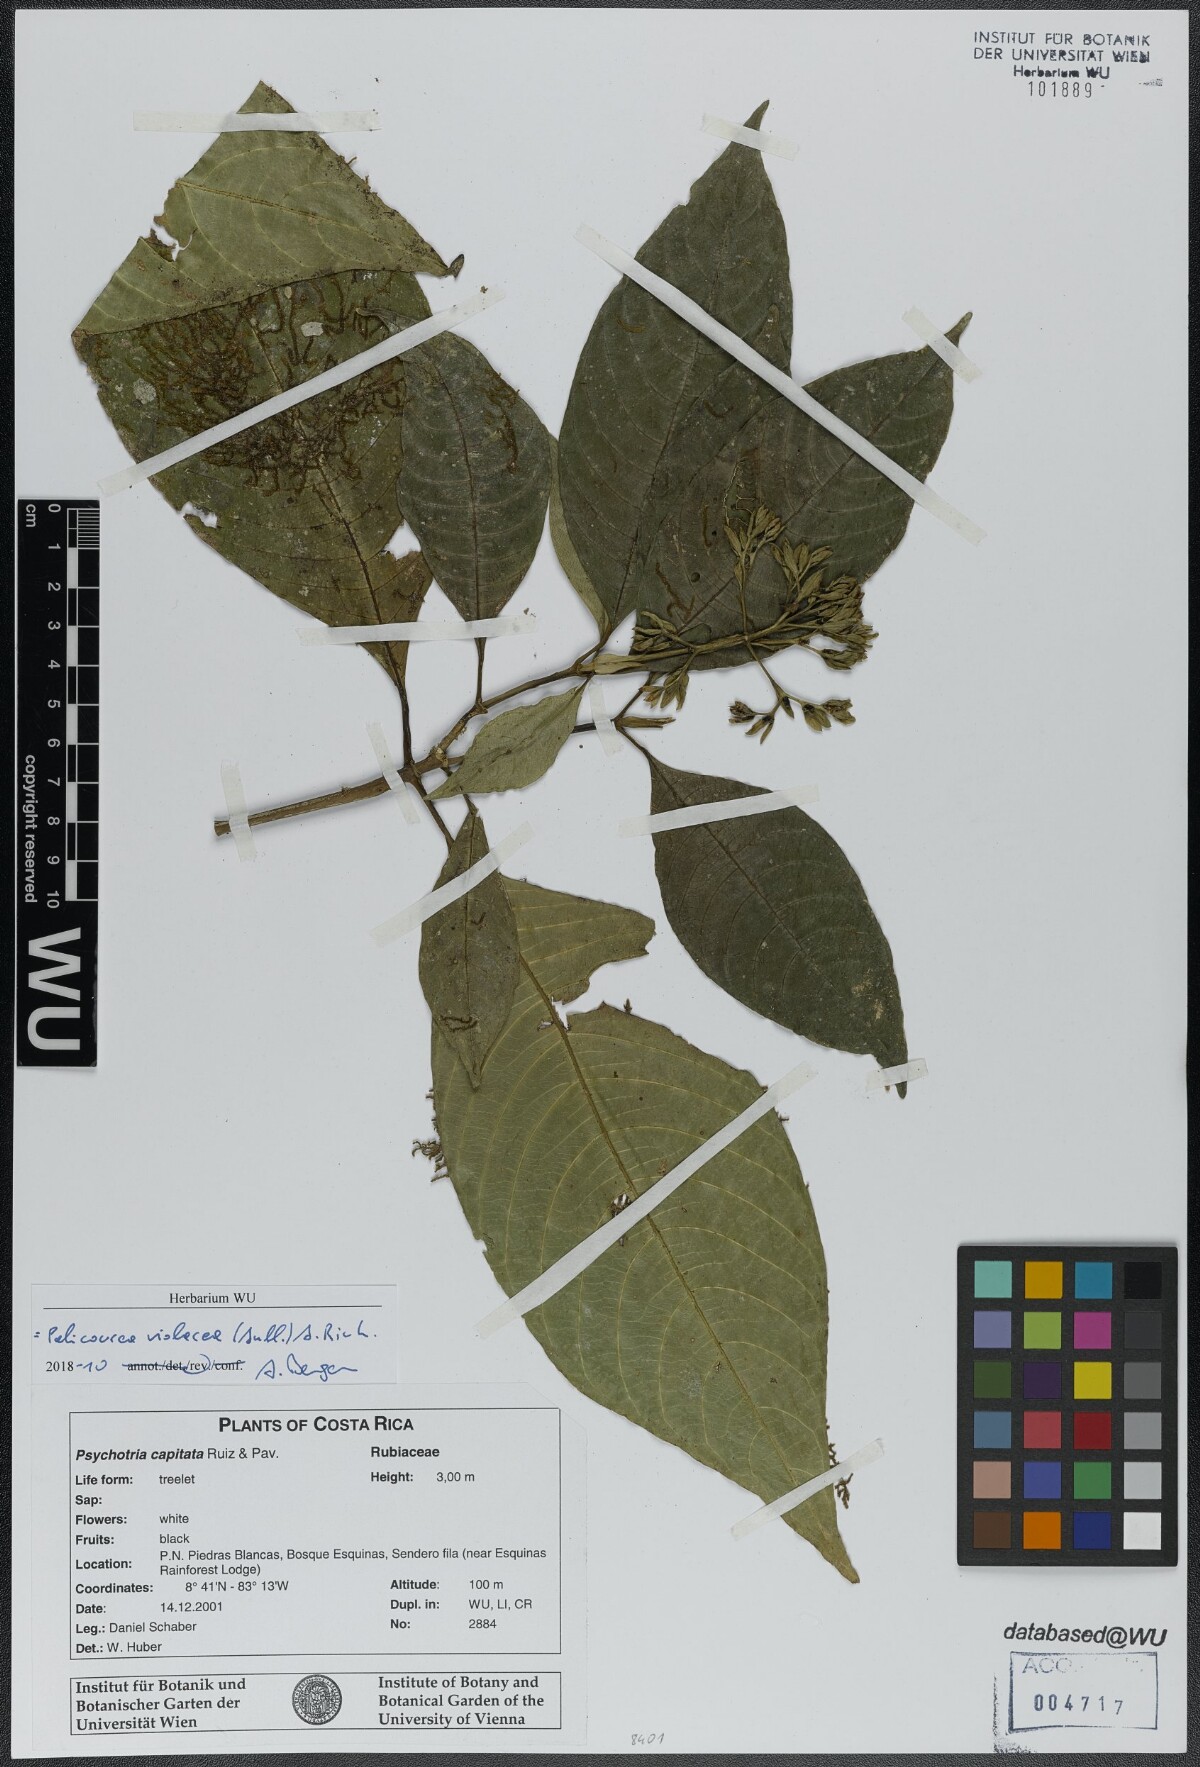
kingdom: Plantae
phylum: Tracheophyta
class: Magnoliopsida
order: Gentianales
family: Rubiaceae
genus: Palicourea
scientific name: Palicourea violacea
